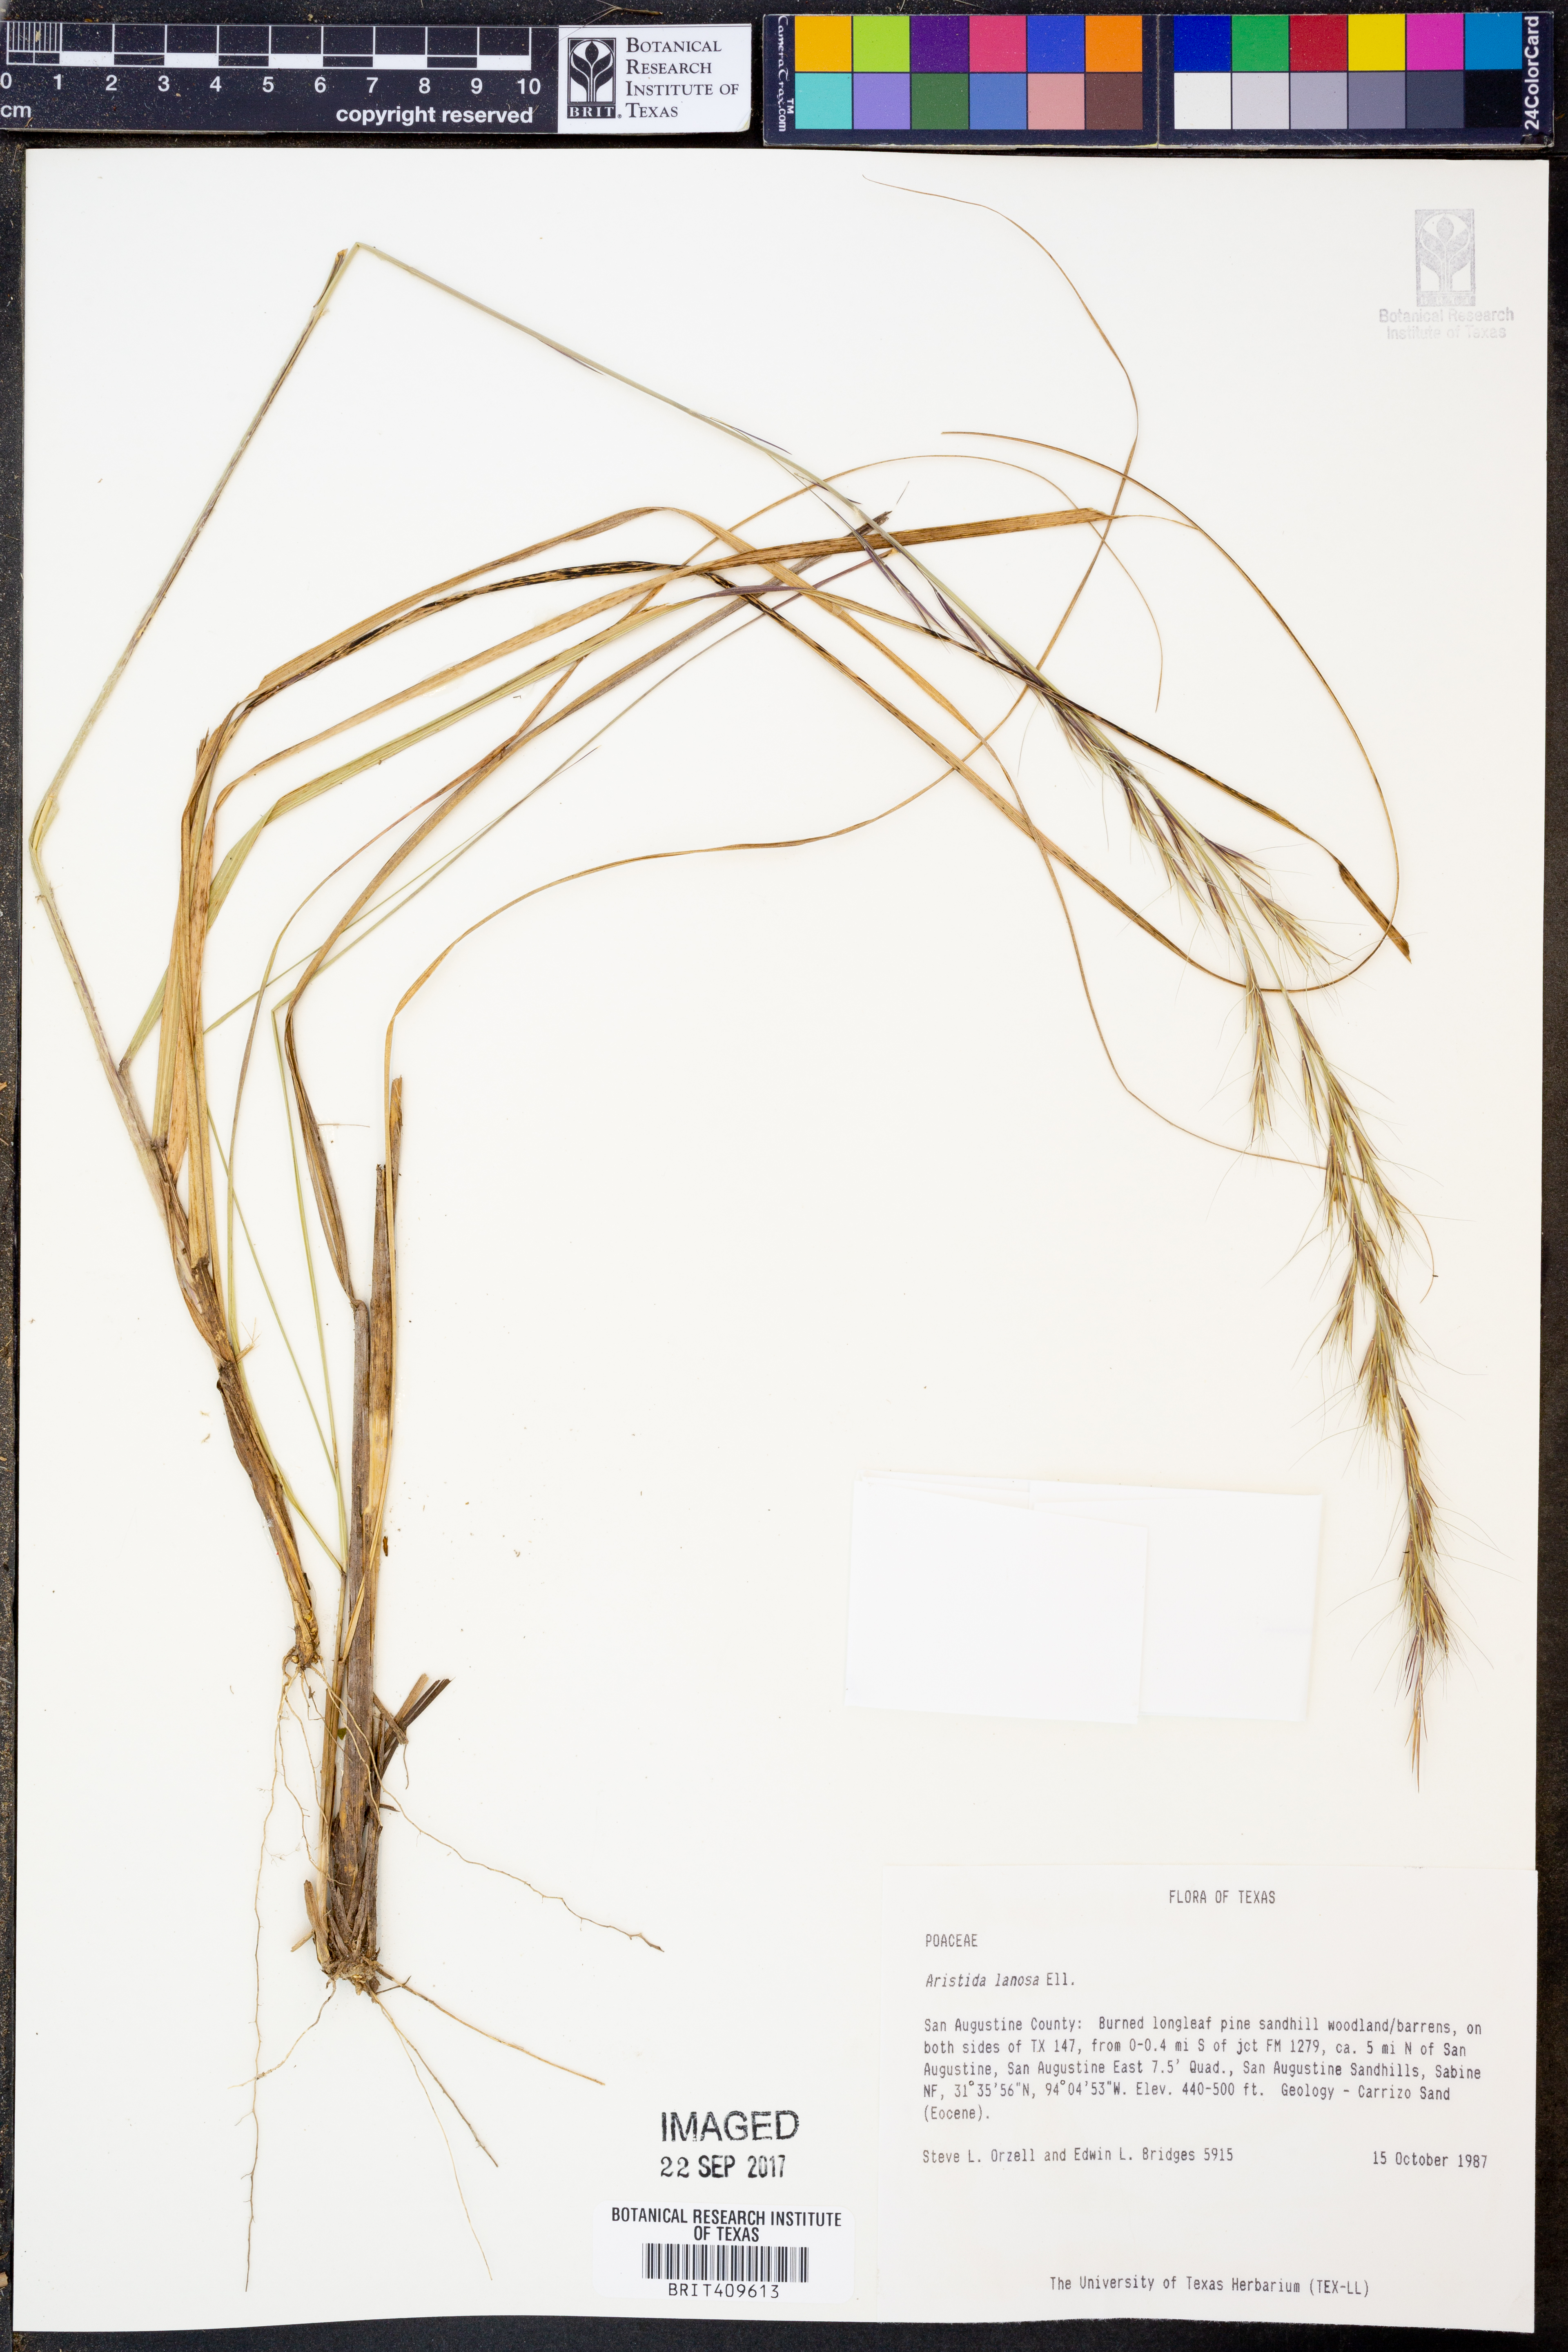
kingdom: Plantae
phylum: Tracheophyta
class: Liliopsida
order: Poales
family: Poaceae
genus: Aristida
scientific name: Aristida lanosa
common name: Woolly three-awn
